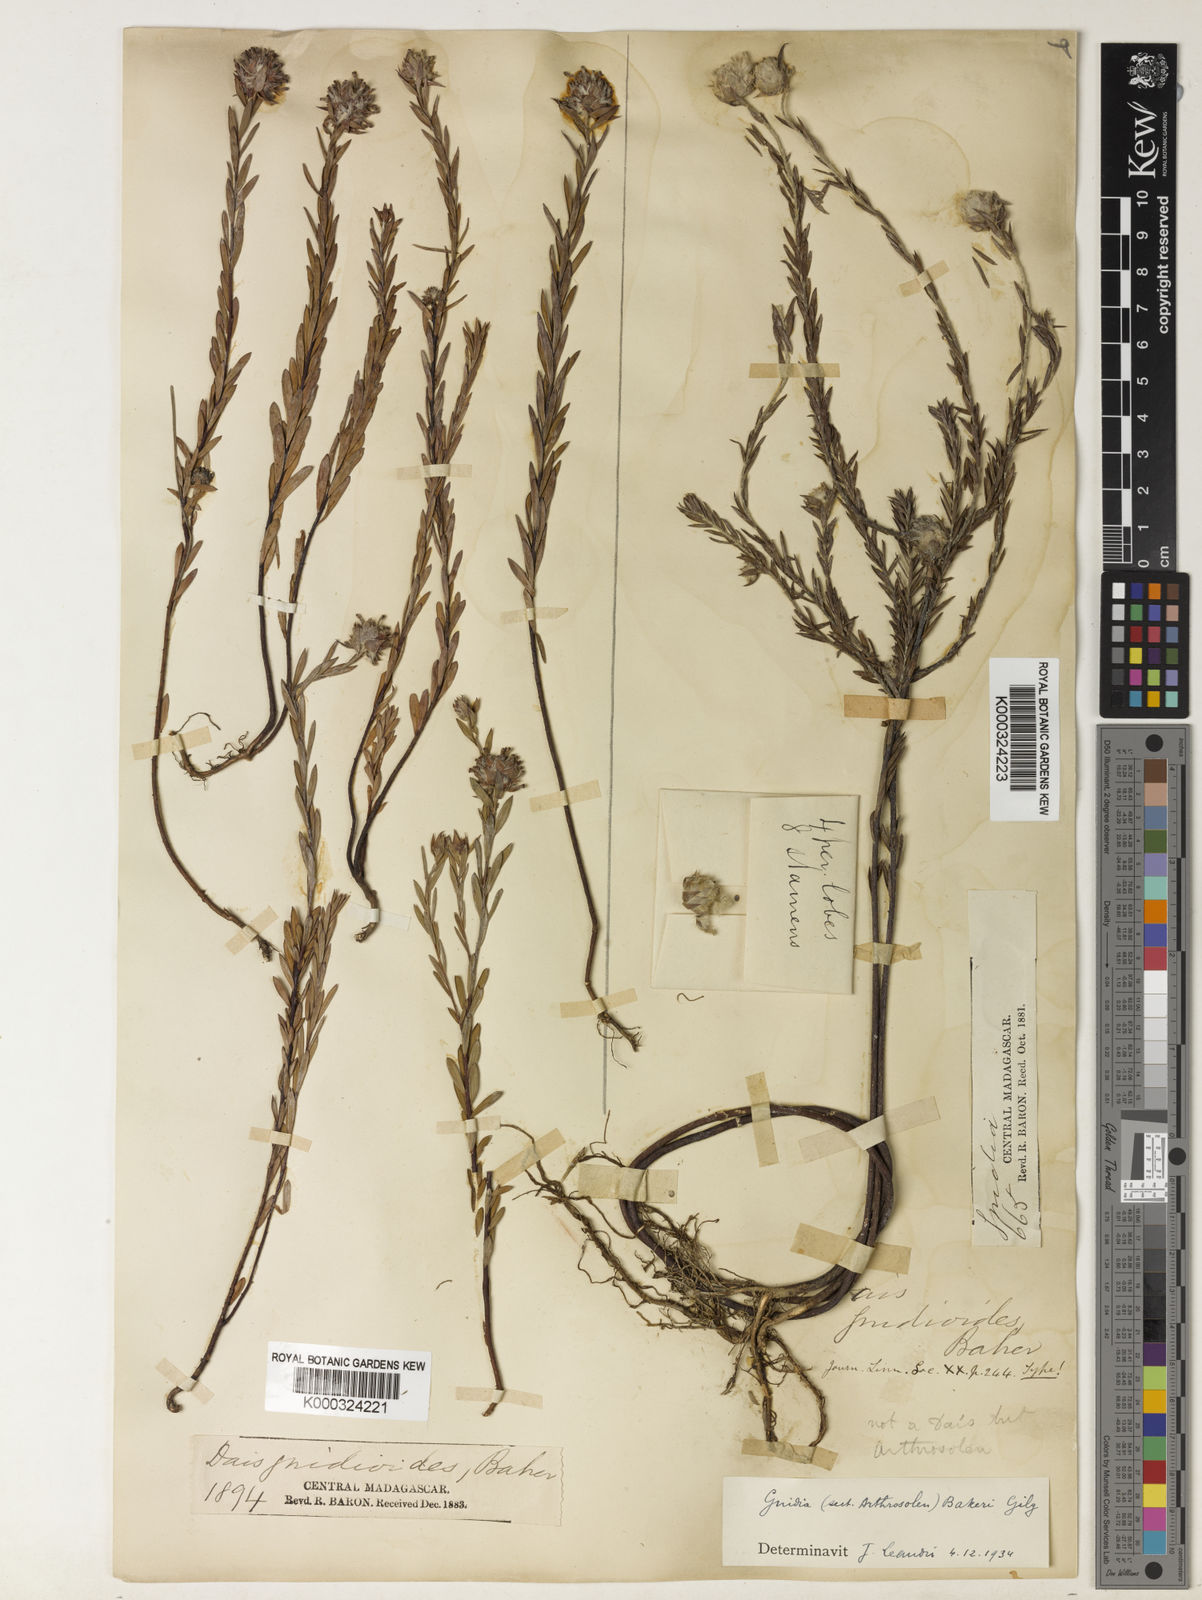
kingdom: Plantae
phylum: Tracheophyta
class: Magnoliopsida
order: Malvales
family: Thymelaeaceae
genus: Gnidia
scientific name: Gnidia gnidioides
